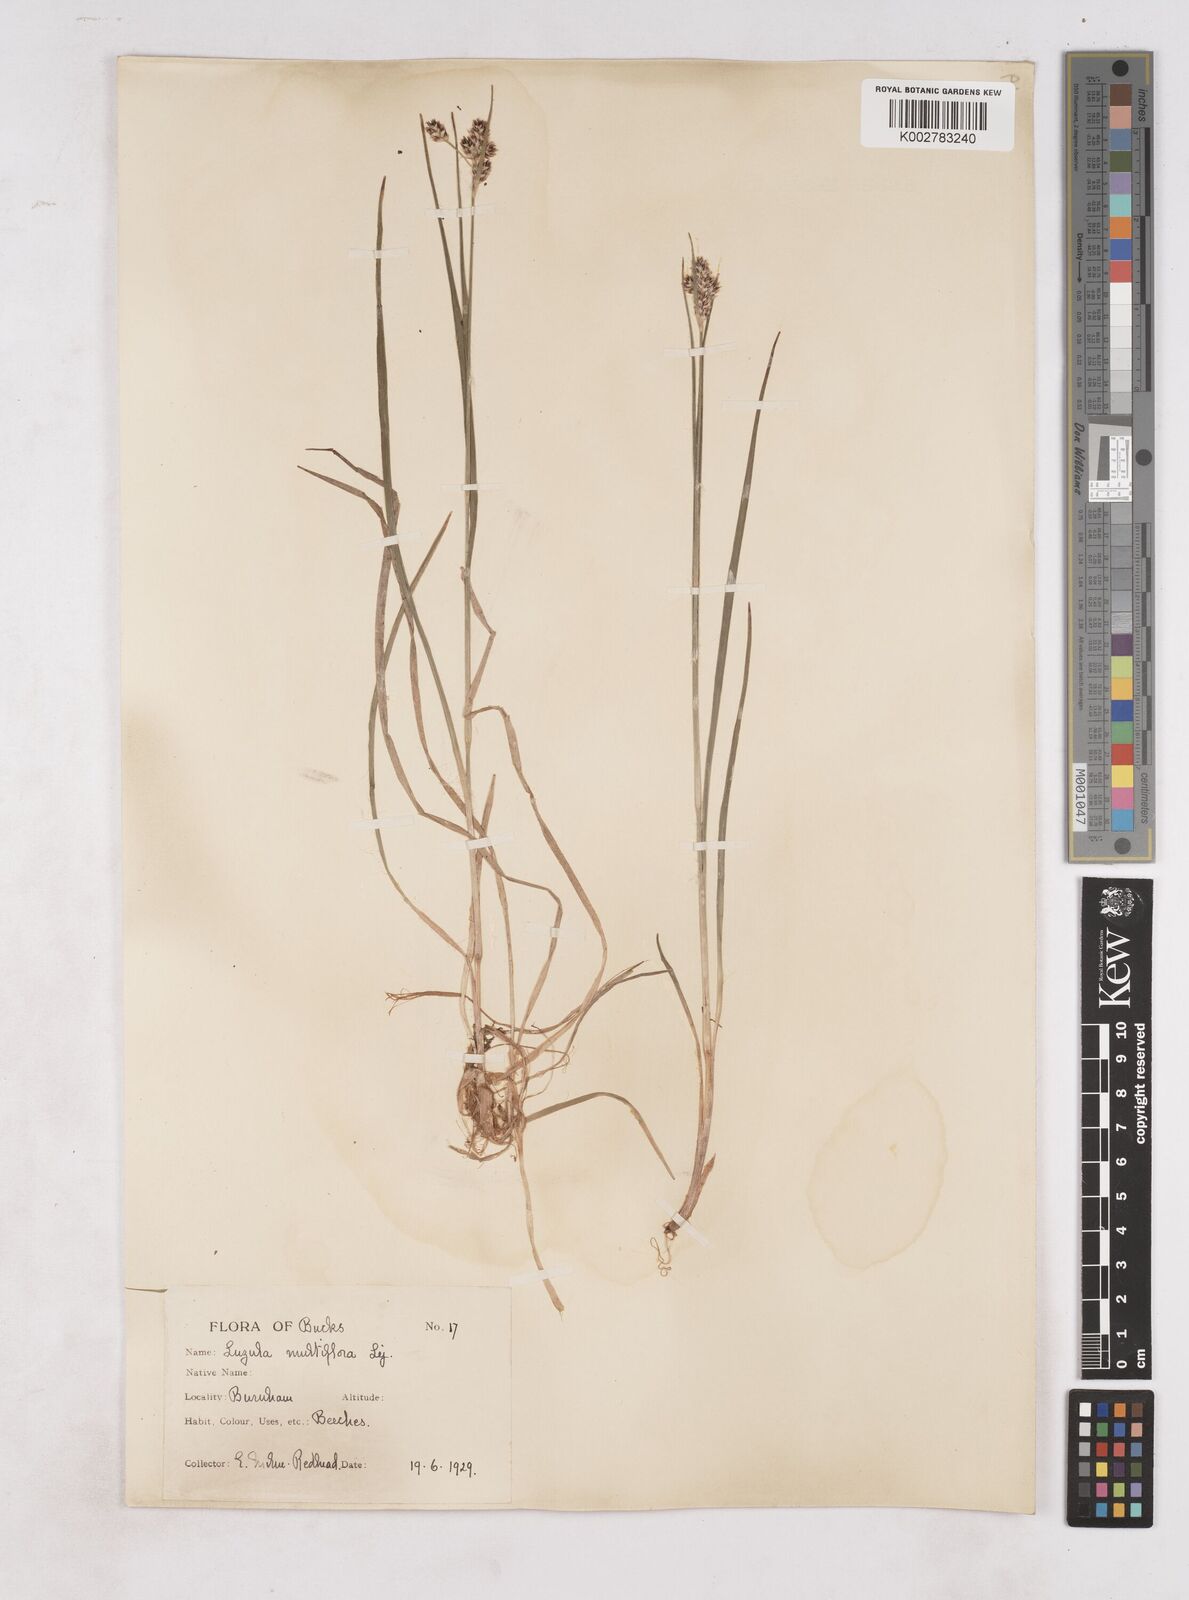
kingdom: Plantae
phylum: Tracheophyta
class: Liliopsida
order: Poales
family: Juncaceae
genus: Luzula
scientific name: Luzula multiflora
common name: Heath wood-rush
